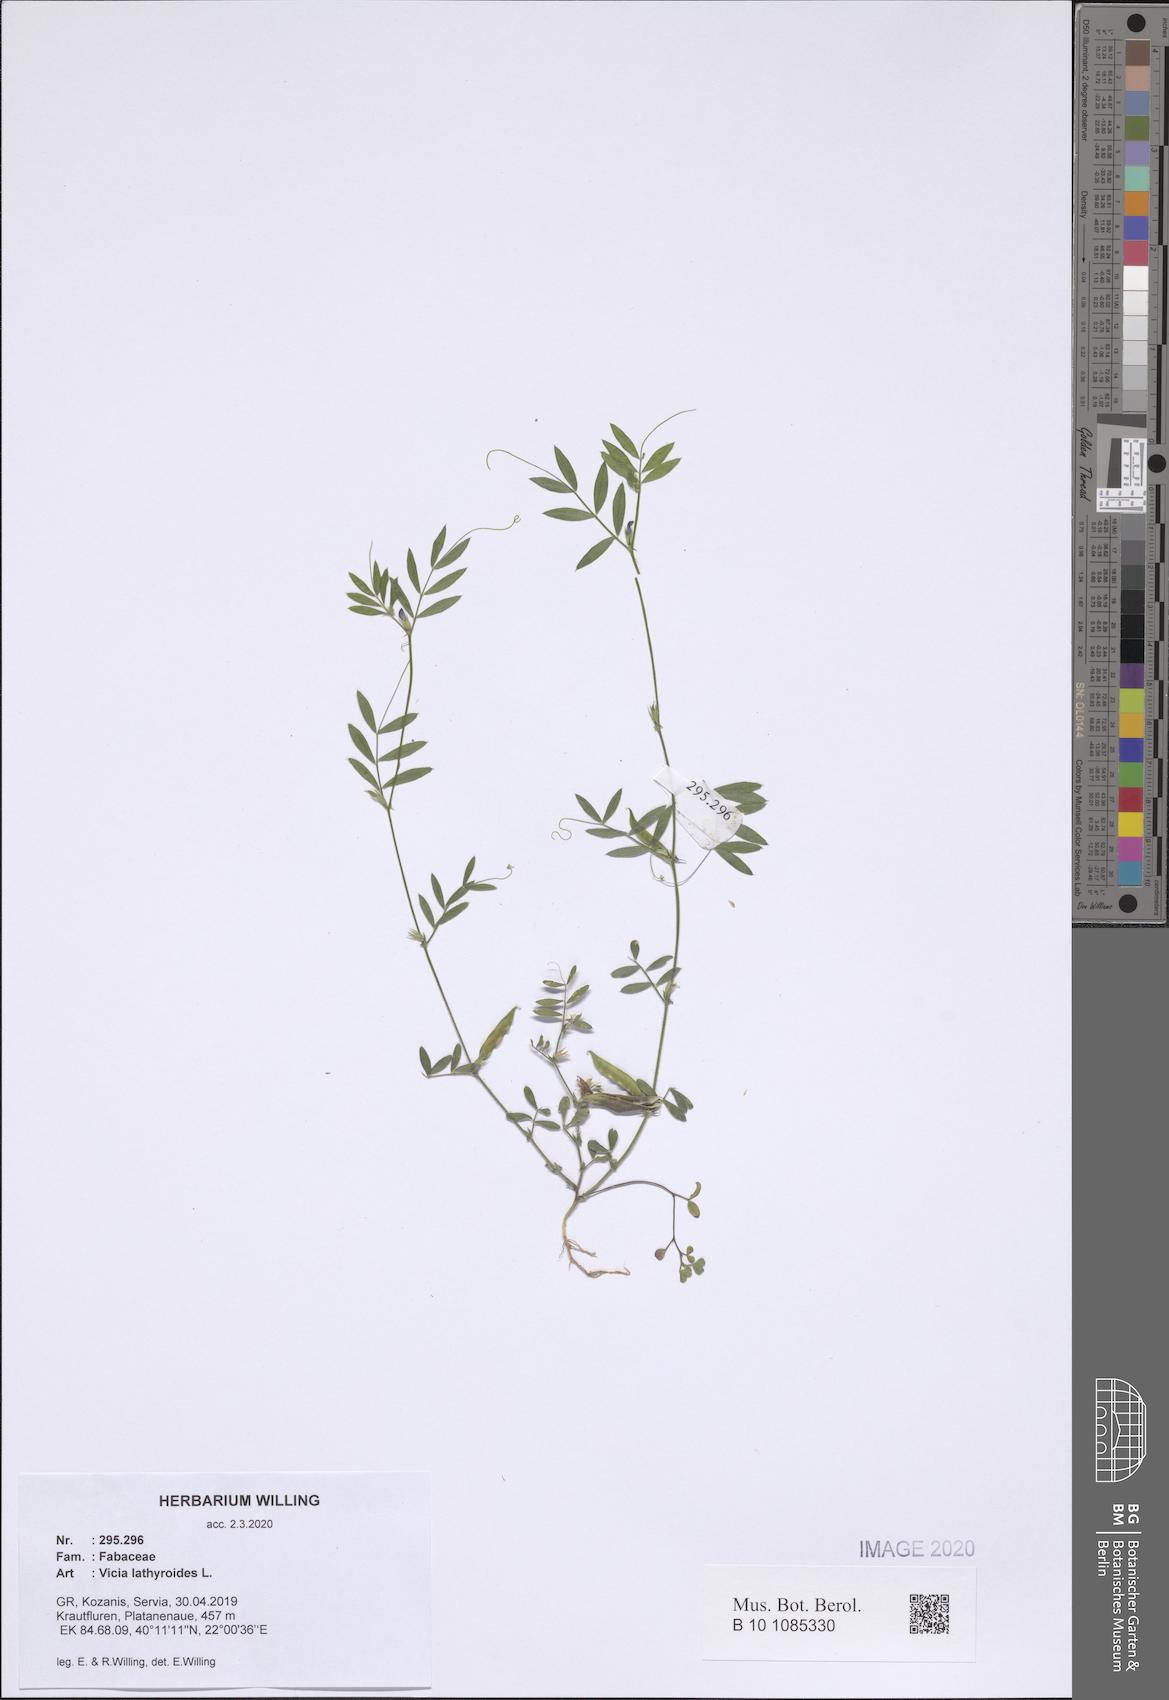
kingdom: Plantae
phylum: Tracheophyta
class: Magnoliopsida
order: Fabales
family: Fabaceae
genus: Vicia
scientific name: Vicia lathyroides
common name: Spring vetch
